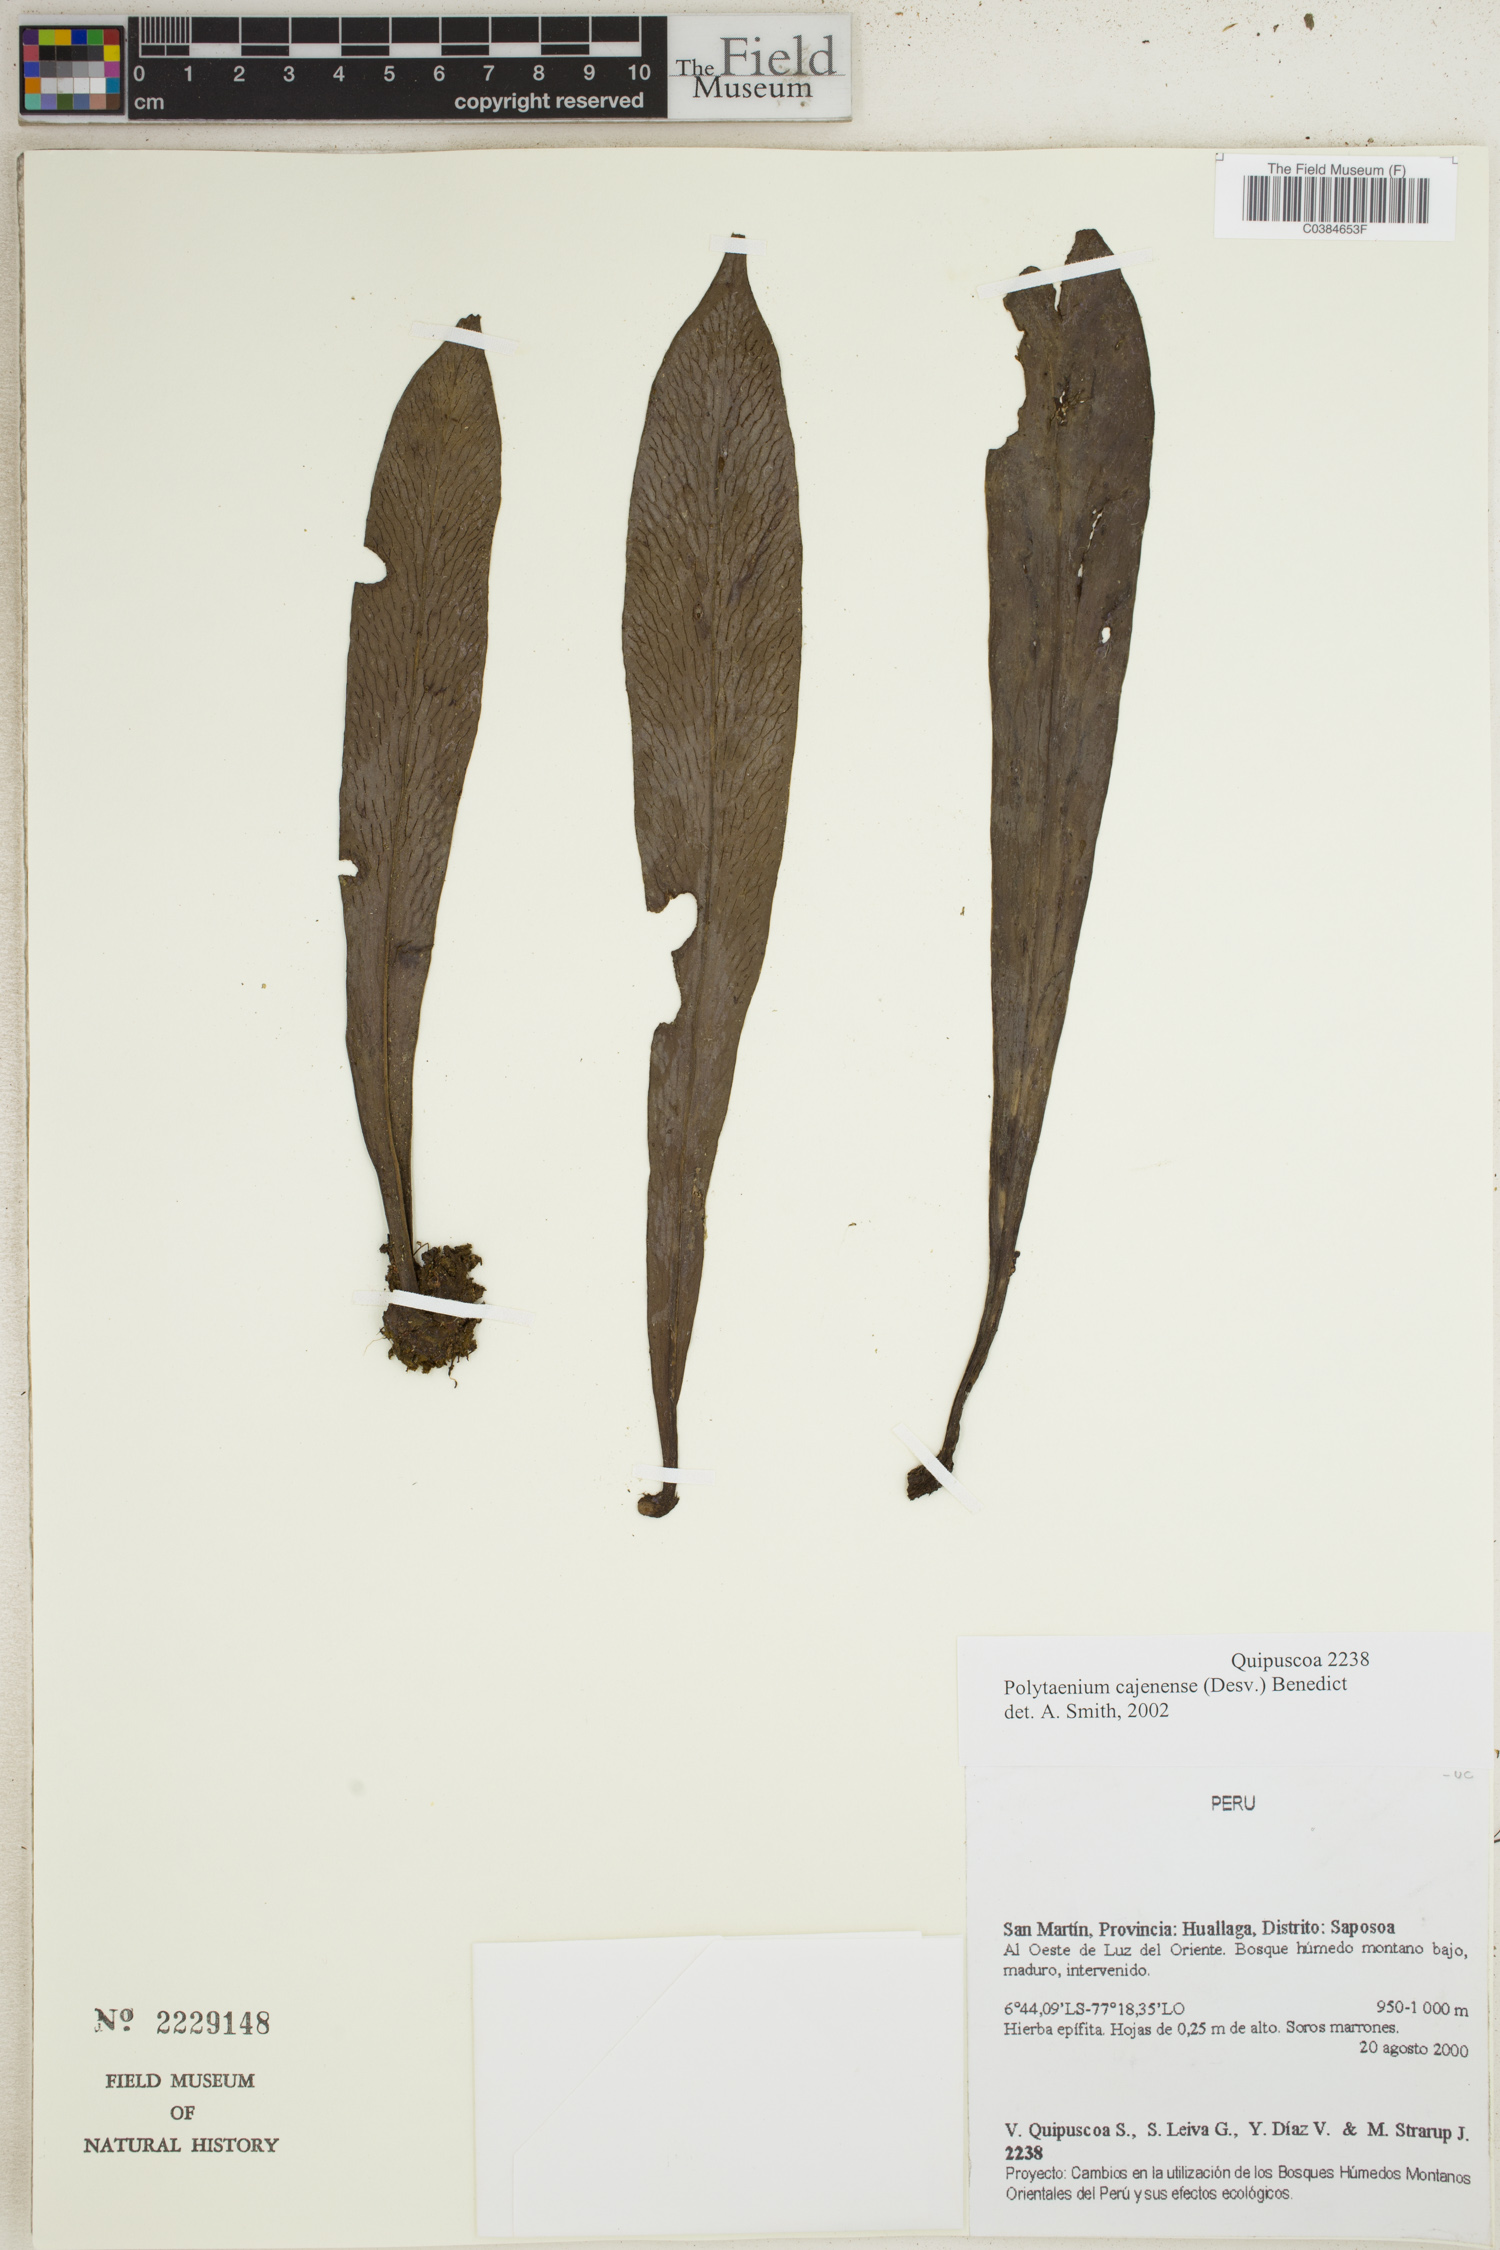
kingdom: Plantae
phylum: Tracheophyta
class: Polypodiopsida
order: Polypodiales
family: Pteridaceae
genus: Polytaenium
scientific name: Polytaenium cajenense
